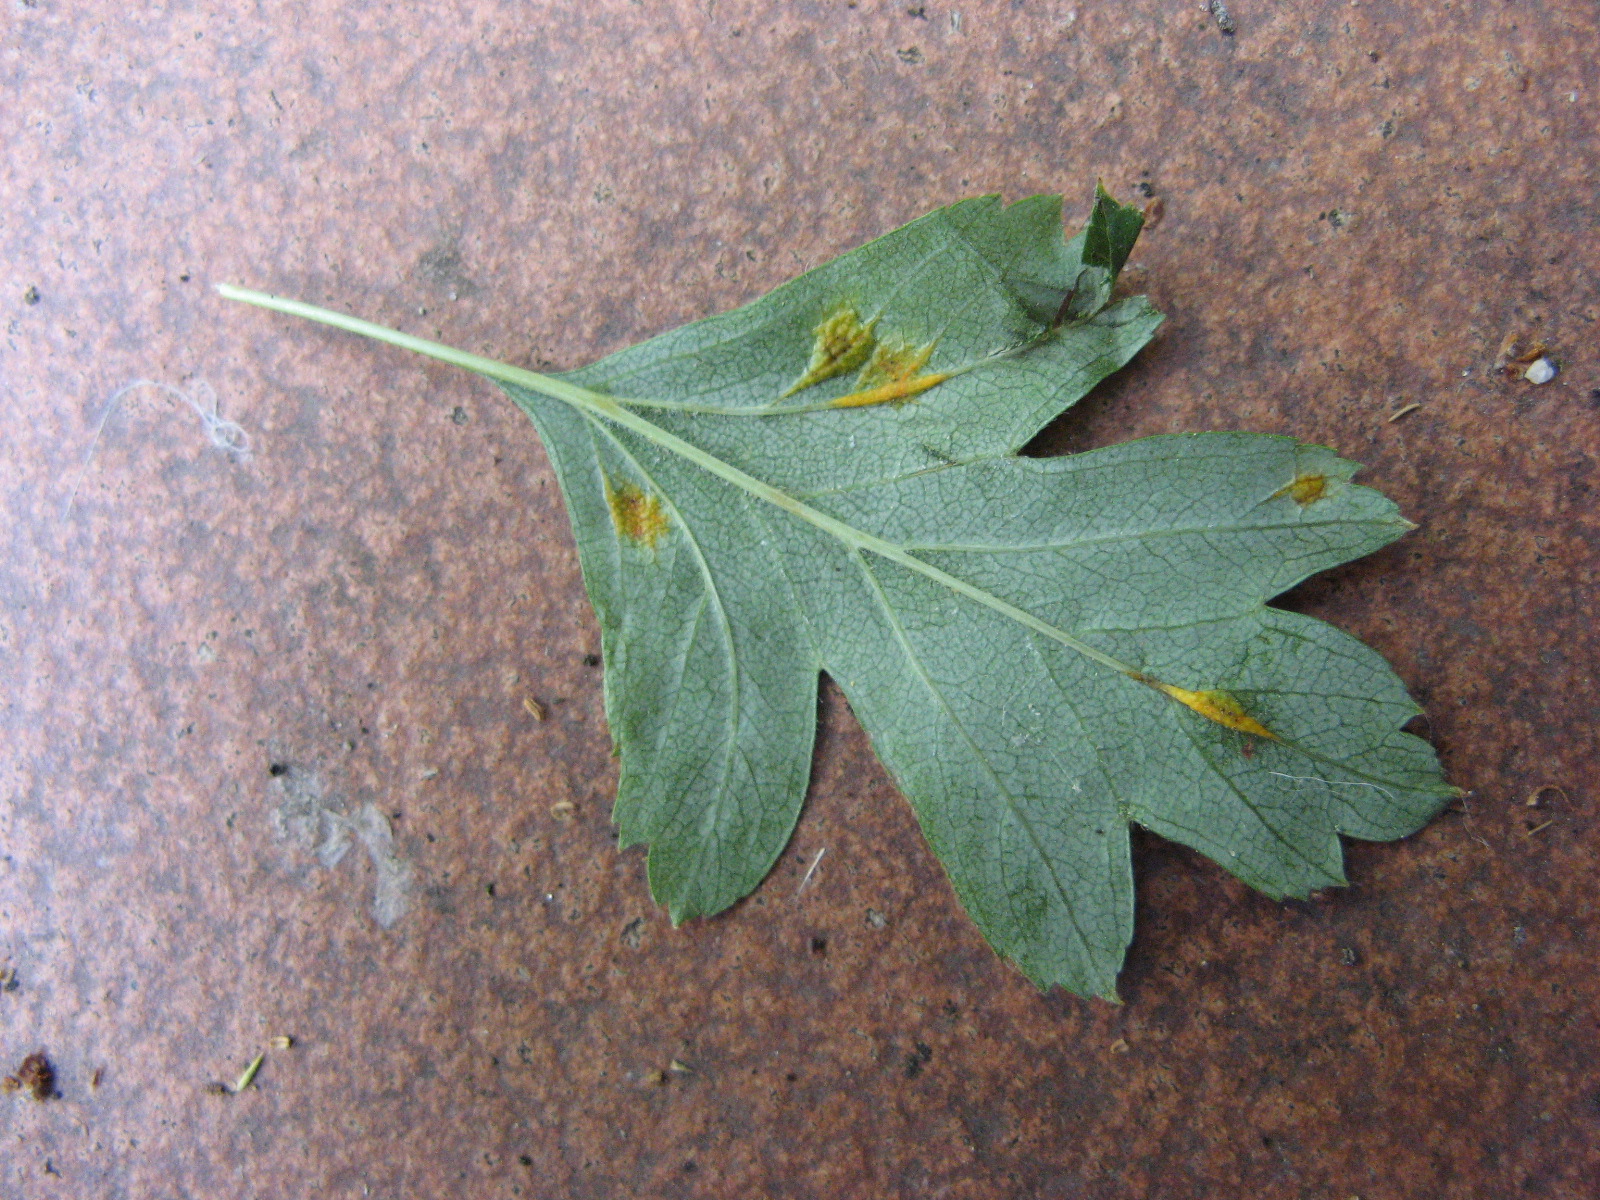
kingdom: Fungi
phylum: Basidiomycota
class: Pucciniomycetes
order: Pucciniales
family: Gymnosporangiaceae
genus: Gymnosporangium
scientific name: Gymnosporangium
